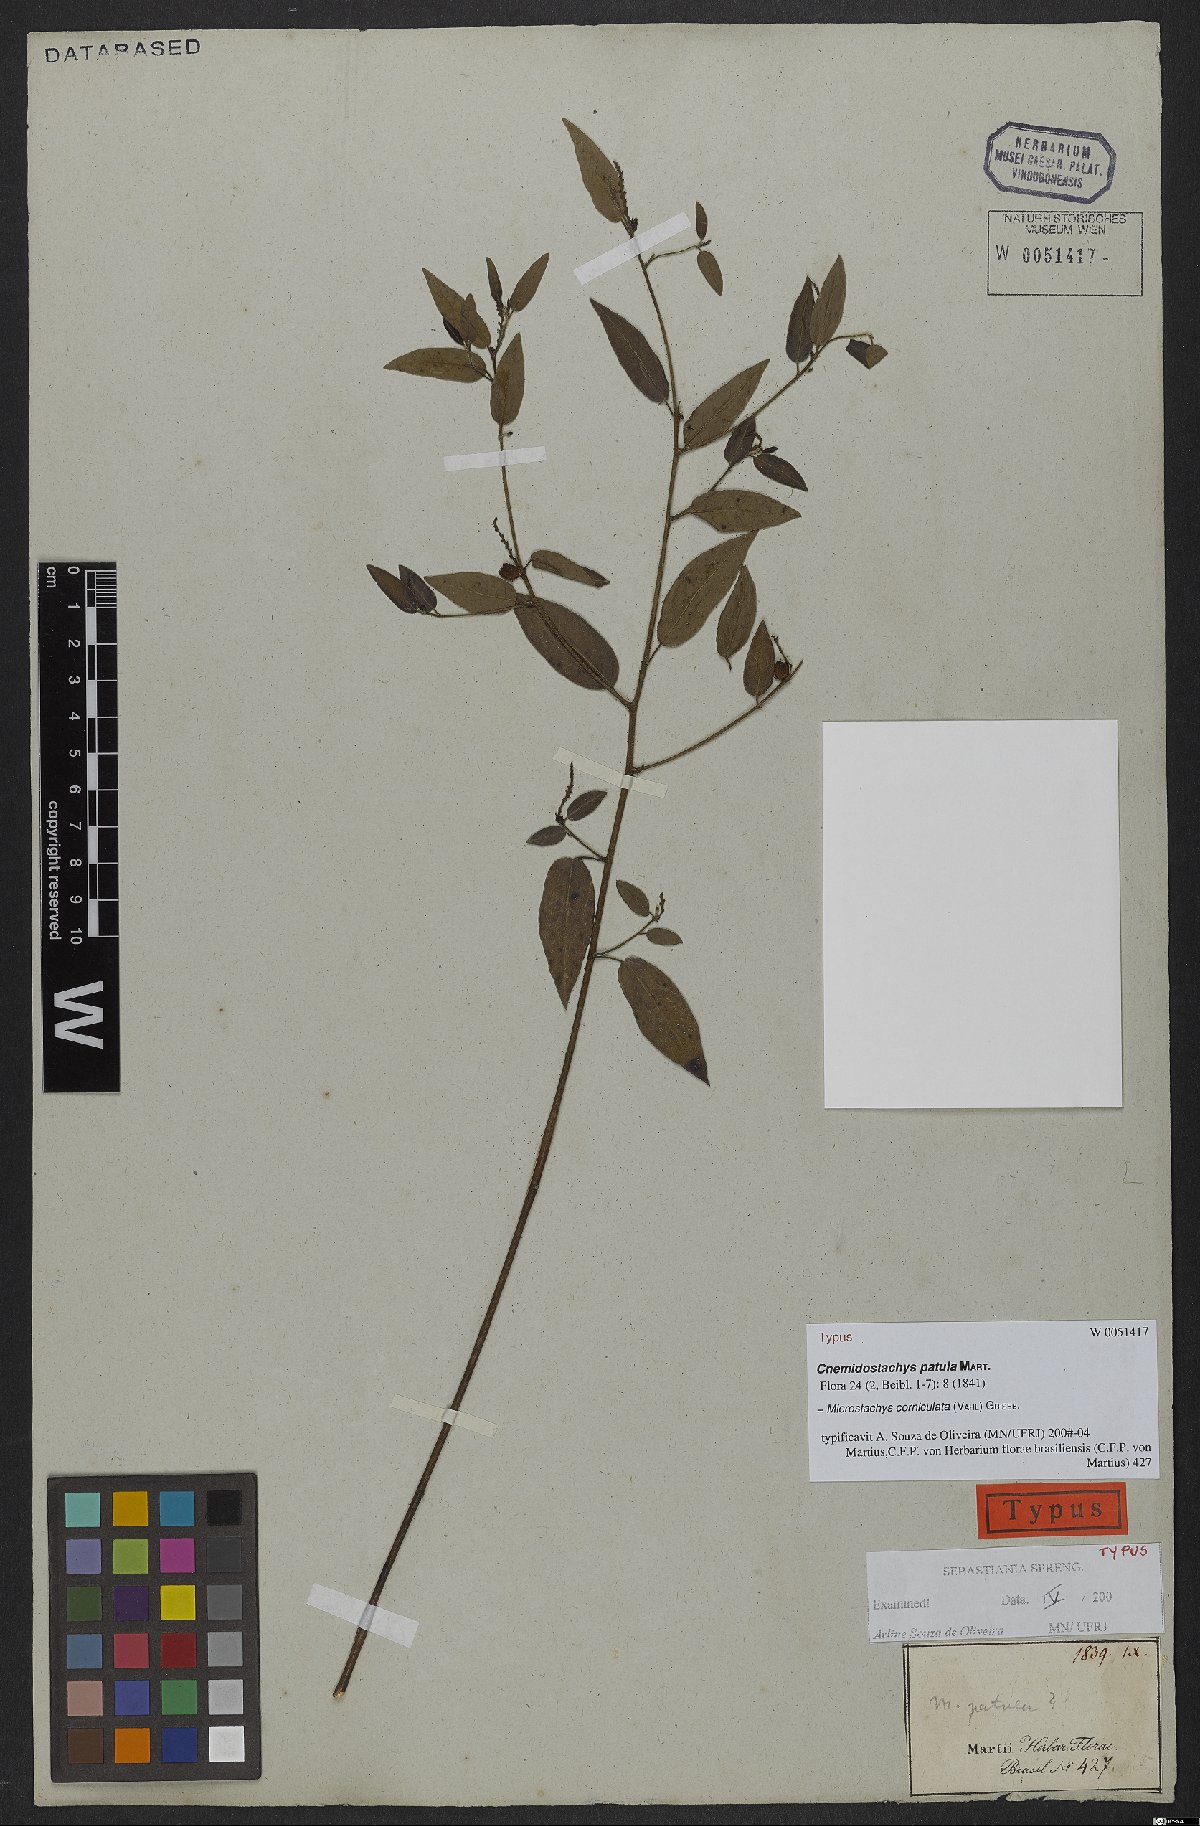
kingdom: Plantae
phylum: Tracheophyta
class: Magnoliopsida
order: Malpighiales
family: Euphorbiaceae
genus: Microstachys
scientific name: Microstachys corniculata
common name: Hato tejas
